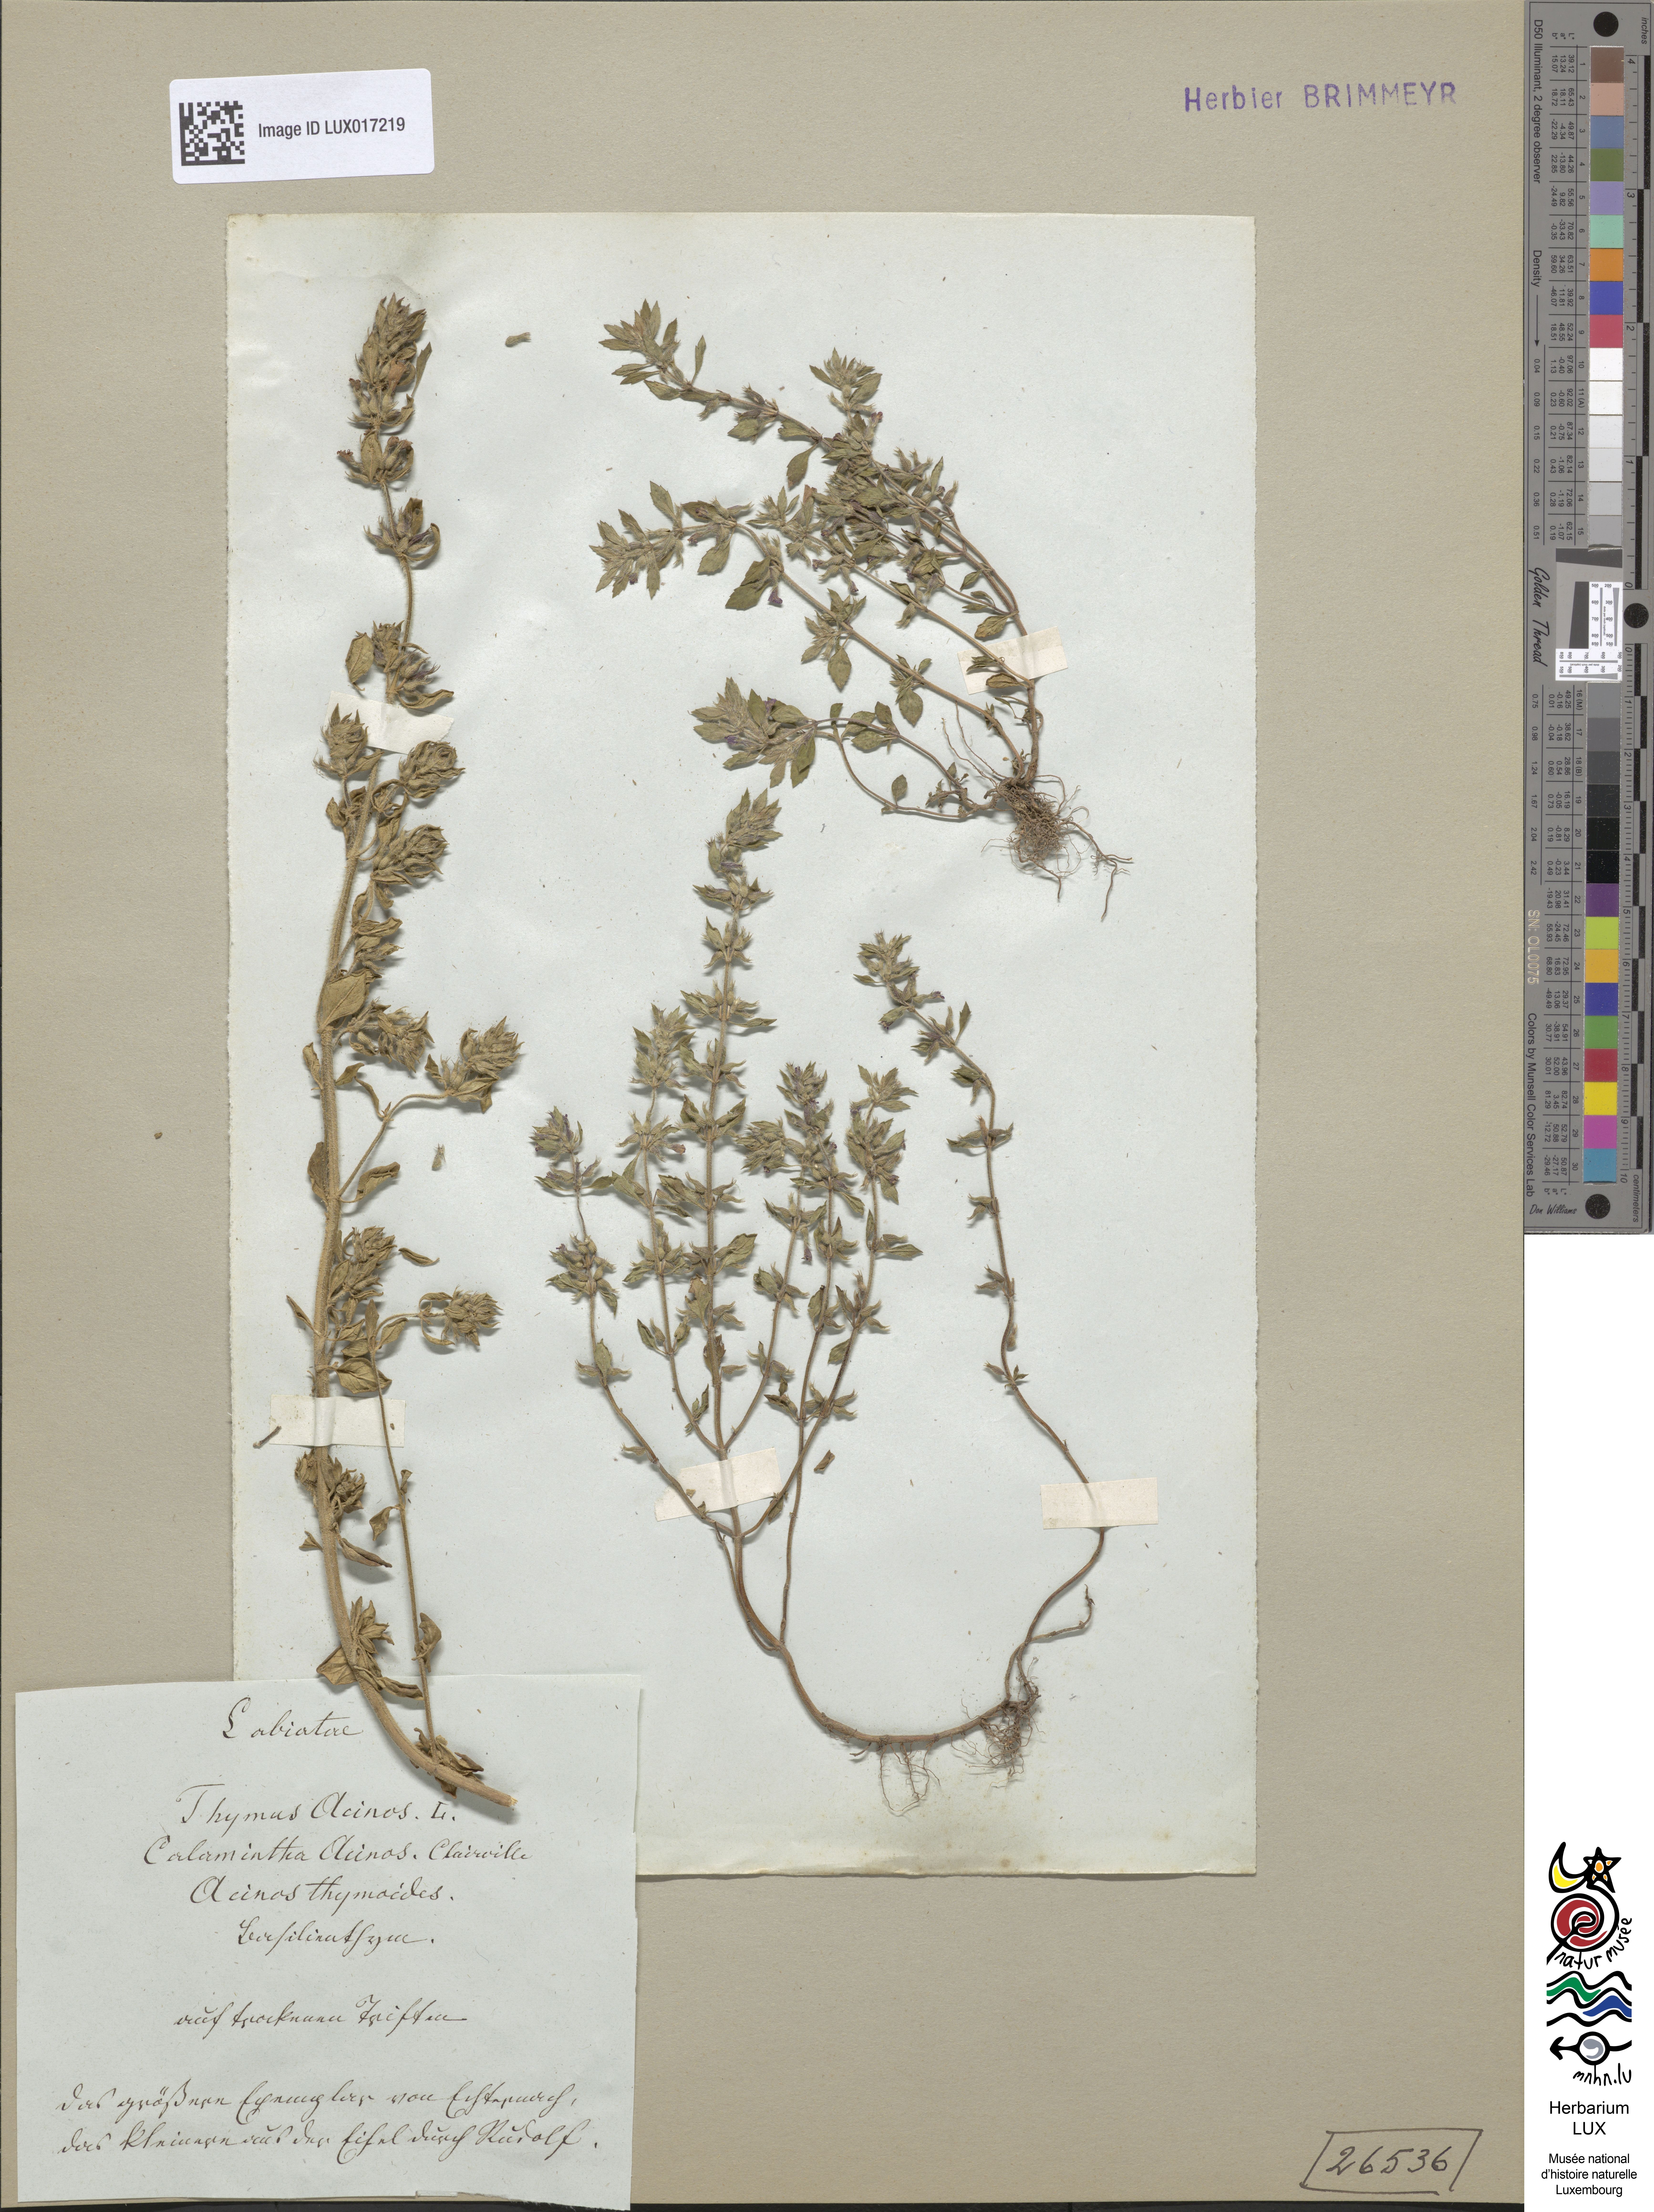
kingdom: Plantae
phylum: Tracheophyta
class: Magnoliopsida
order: Lamiales
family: Lamiaceae
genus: Clinopodium
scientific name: Clinopodium acinos
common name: Basil thyme
